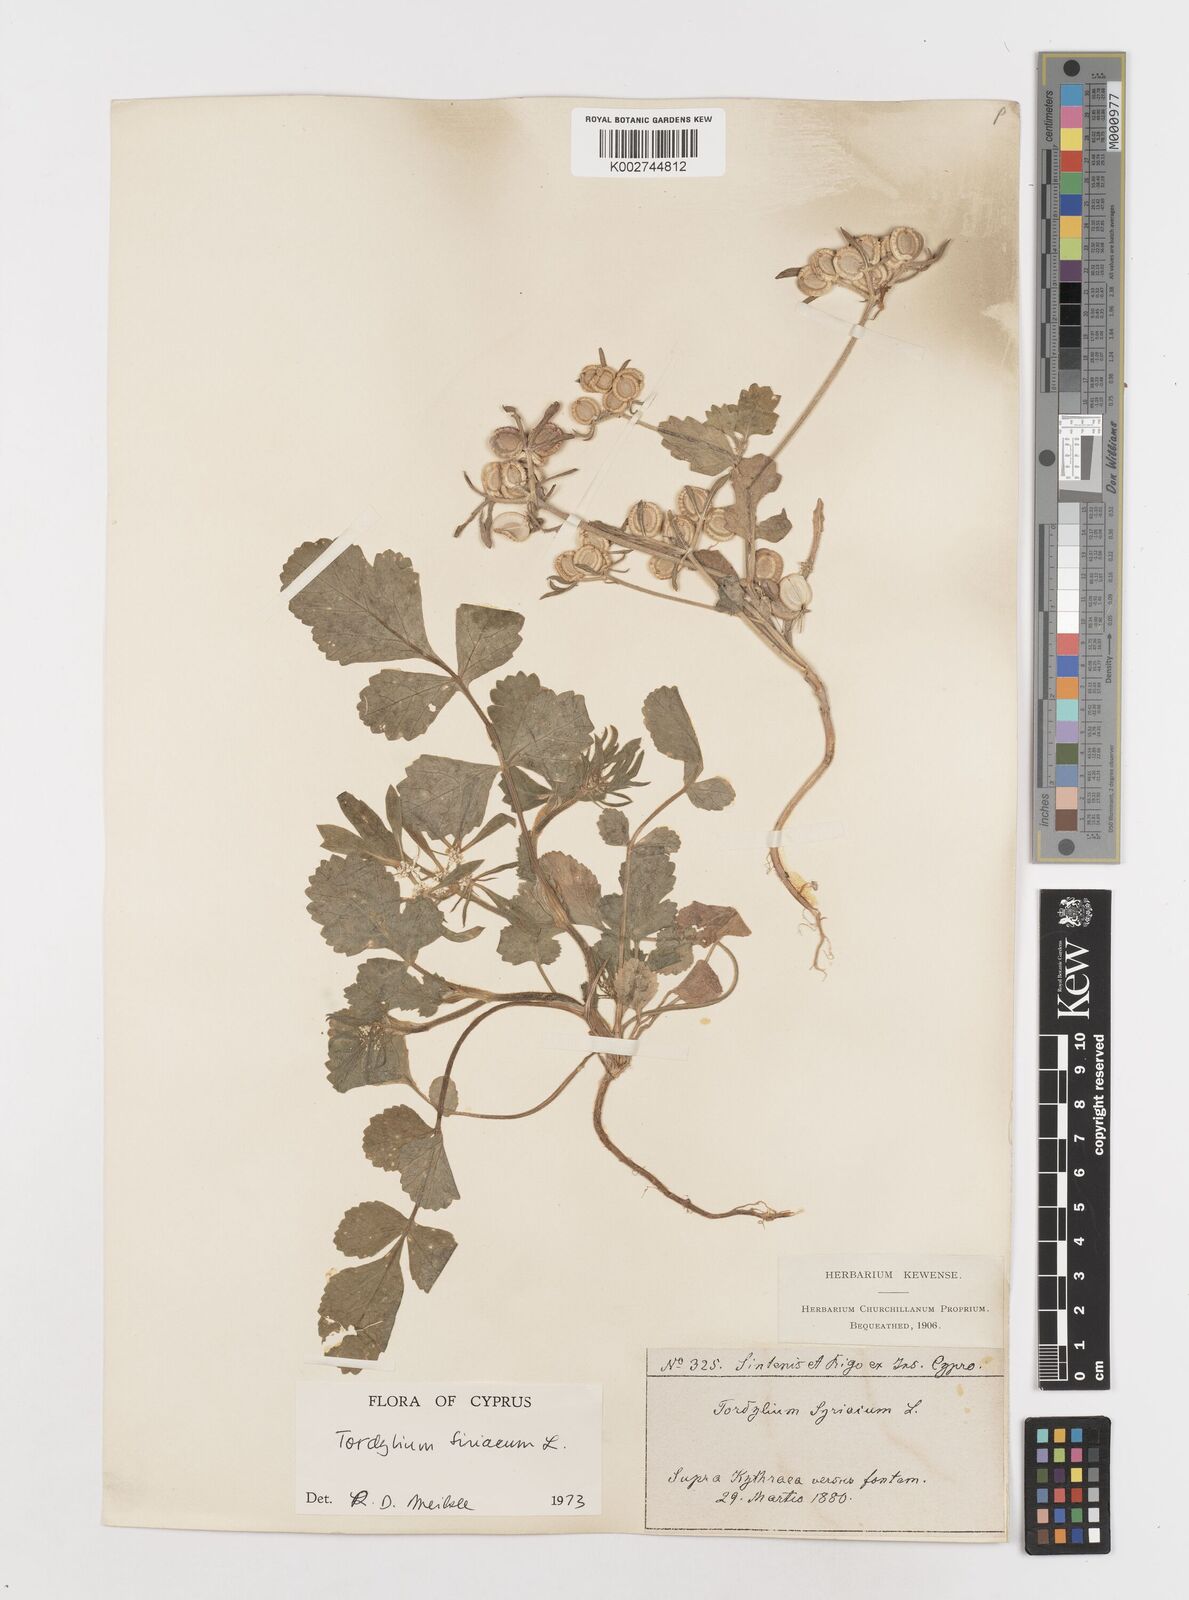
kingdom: Plantae
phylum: Tracheophyta
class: Magnoliopsida
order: Apiales
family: Apiaceae
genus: Tordylium
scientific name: Tordylium syriacum
